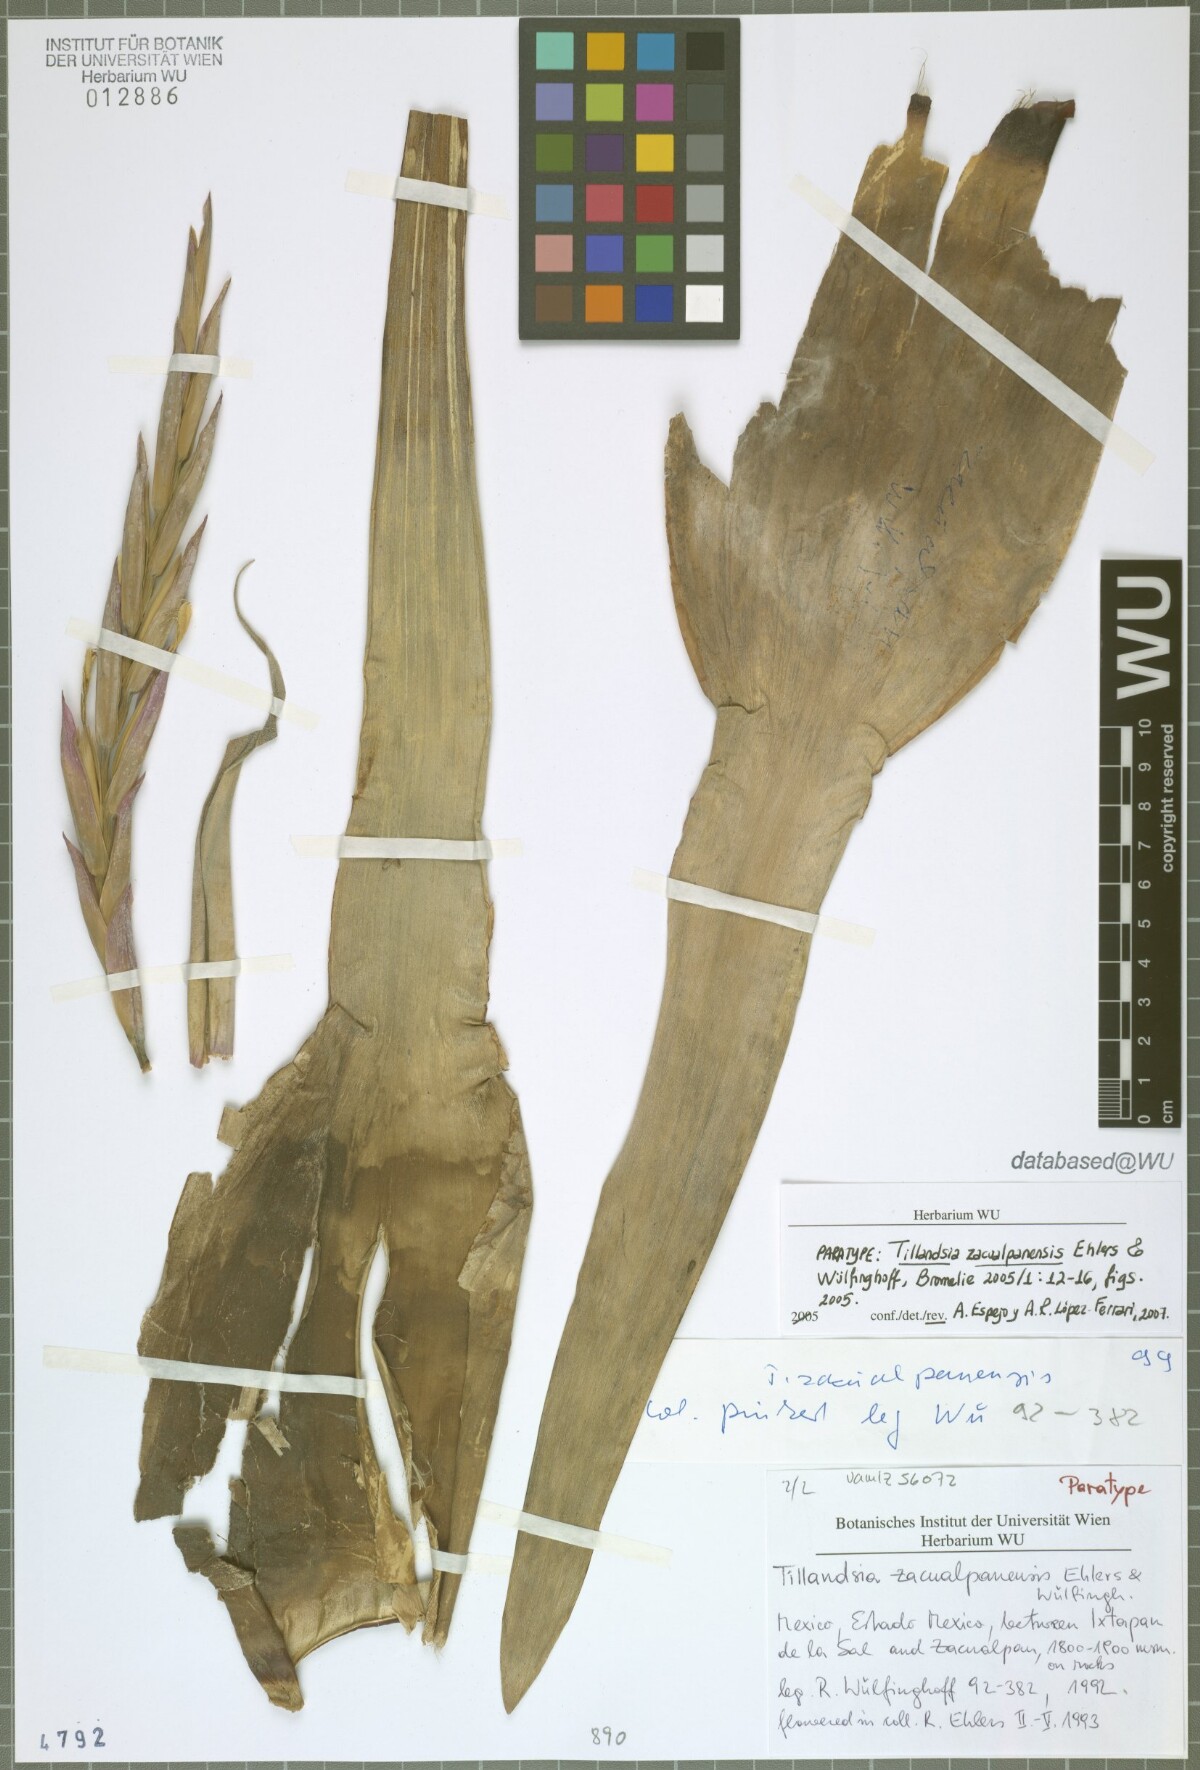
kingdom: Plantae
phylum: Tracheophyta
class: Liliopsida
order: Poales
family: Bromeliaceae
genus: Tillandsia
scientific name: Tillandsia zacualpanensis
